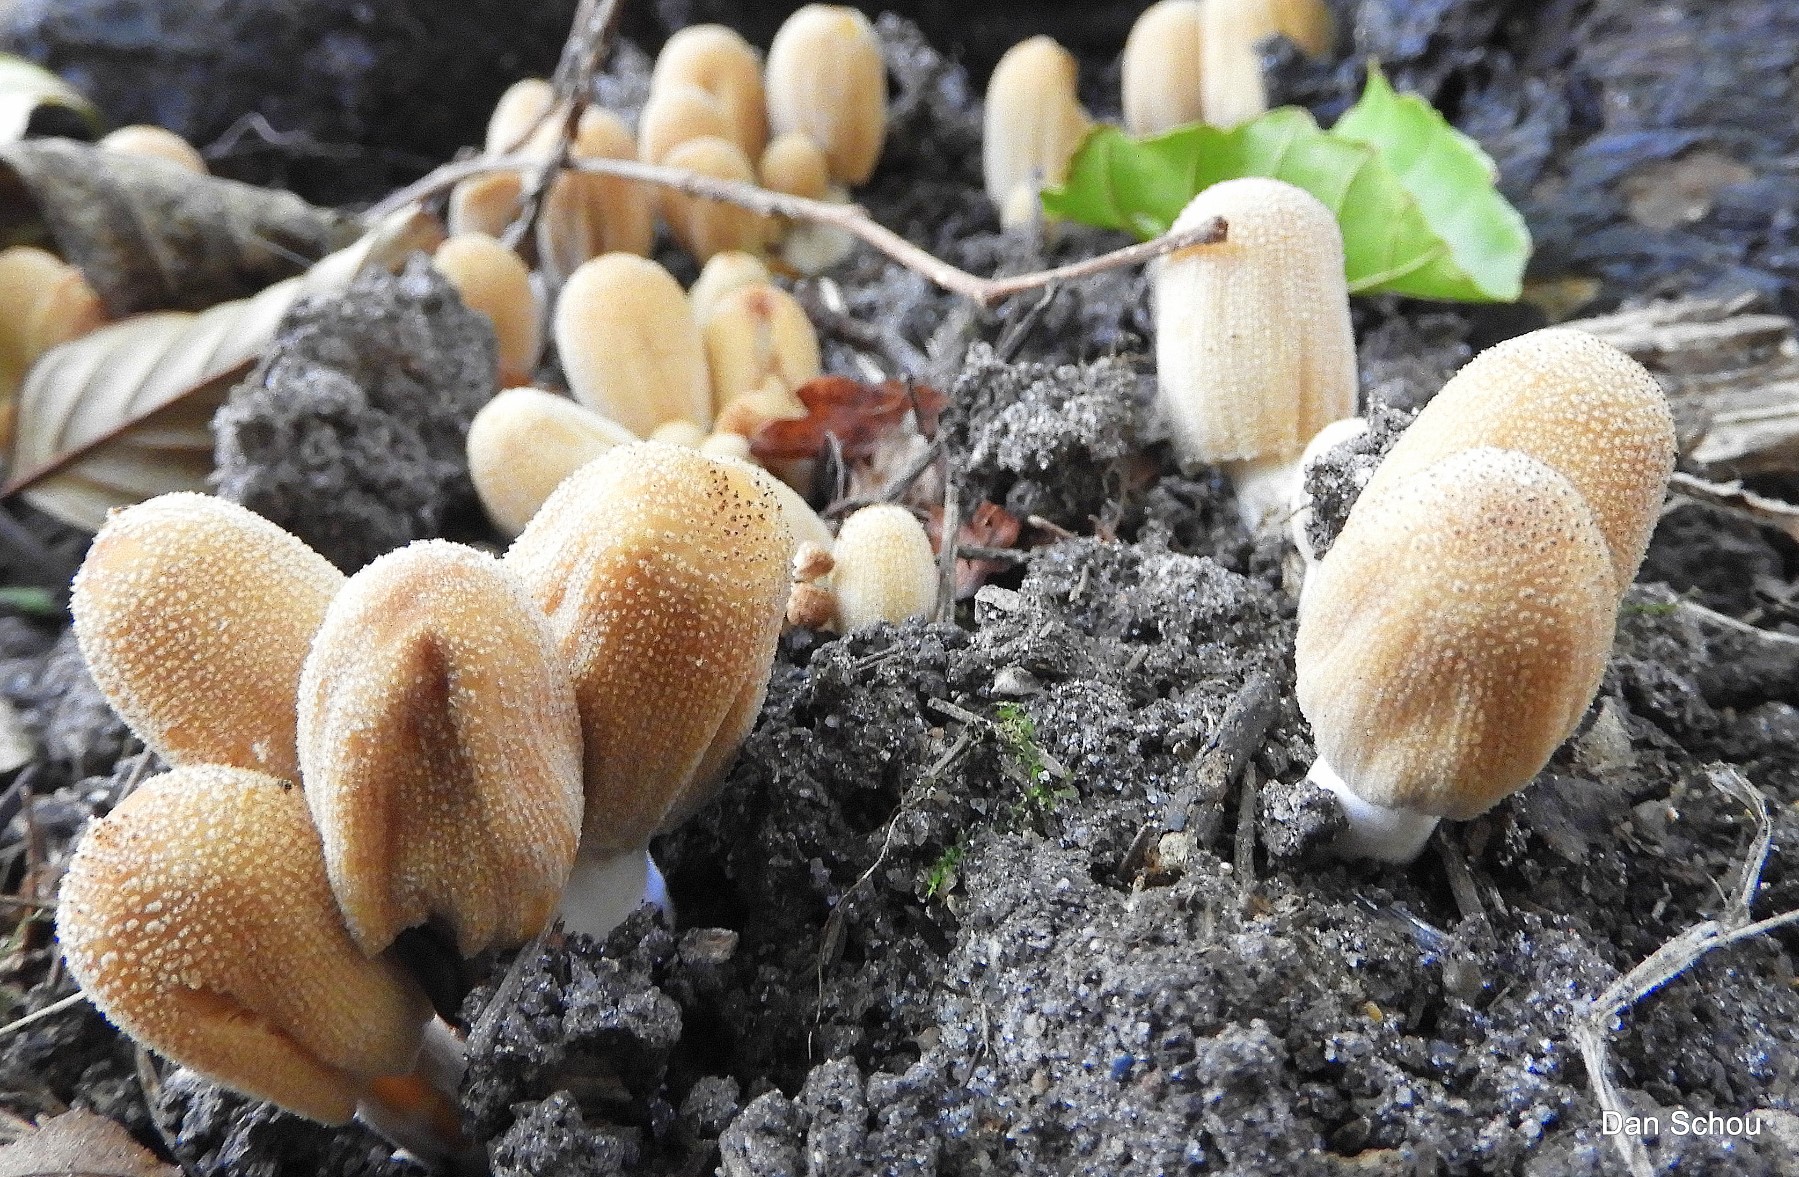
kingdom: Fungi
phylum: Basidiomycota
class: Agaricomycetes
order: Agaricales
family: Psathyrellaceae
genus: Coprinellus
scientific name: Coprinellus micaceus
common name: glimmer-blækhat
